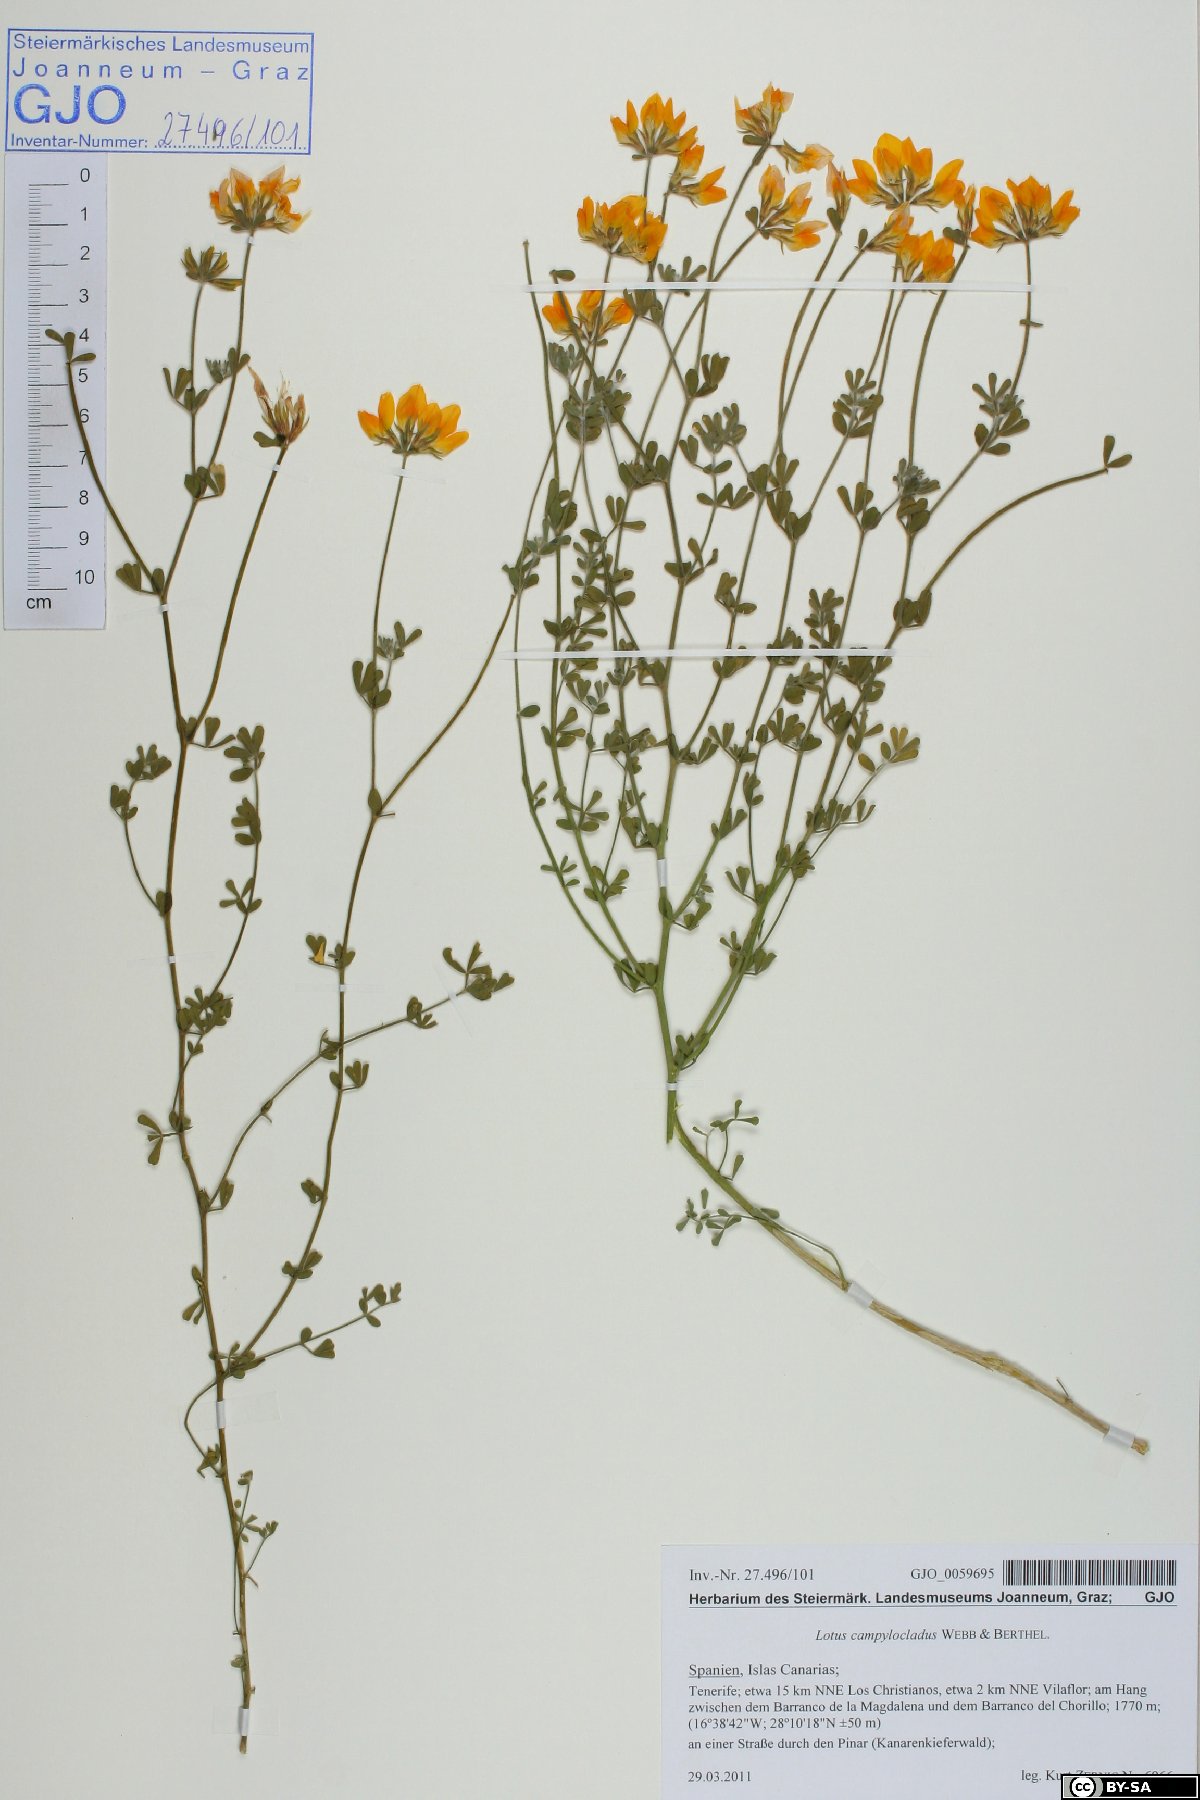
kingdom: Plantae
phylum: Tracheophyta
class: Magnoliopsida
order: Fabales
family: Fabaceae
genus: Lotus
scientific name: Lotus campylocladus
